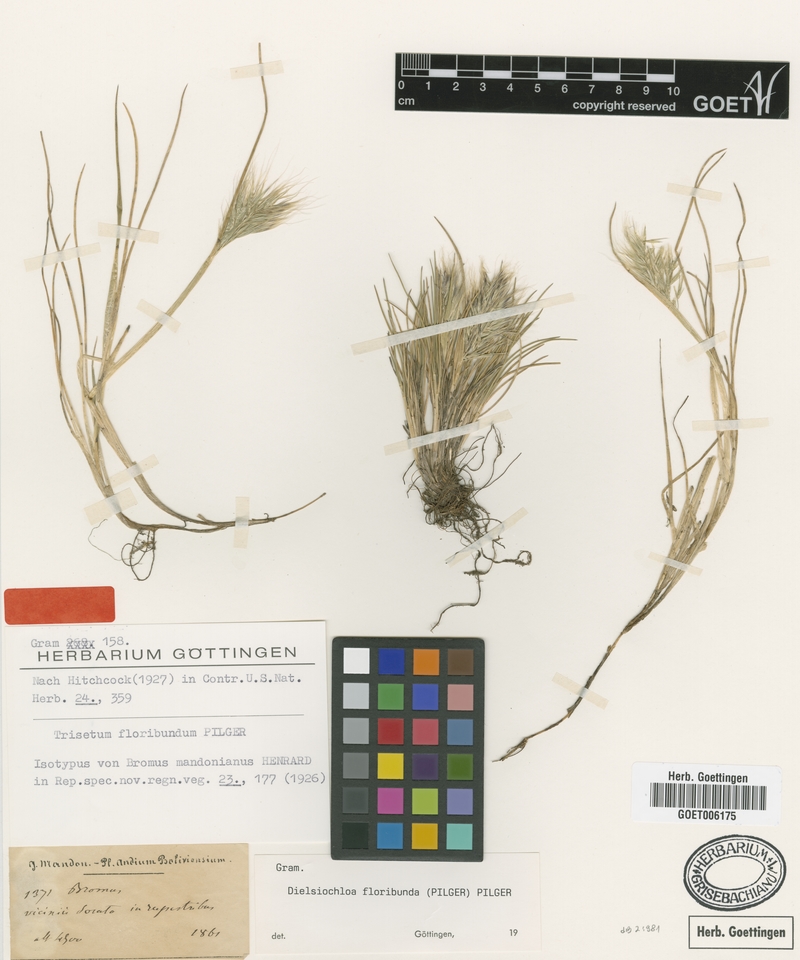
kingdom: Plantae
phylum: Tracheophyta
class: Liliopsida
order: Poales
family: Poaceae
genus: Festuca
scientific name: Festuca floribunda
